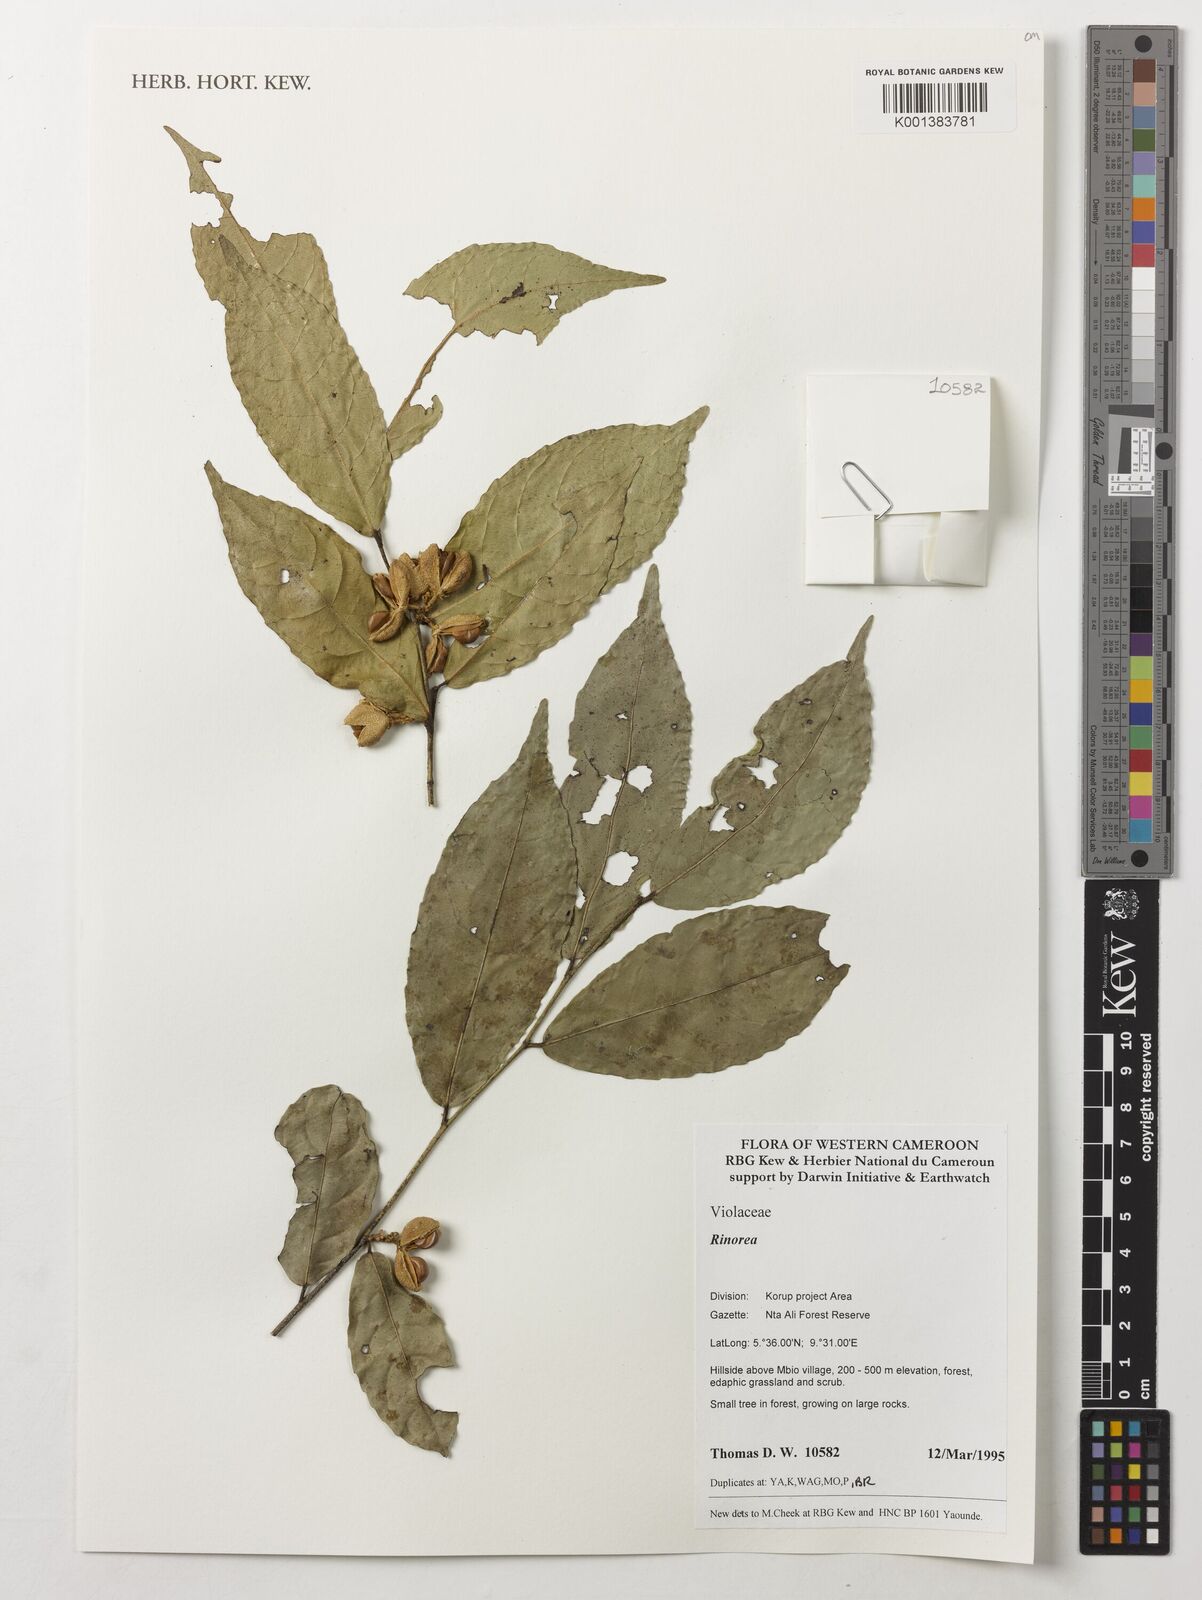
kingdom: Plantae
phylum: Tracheophyta
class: Magnoliopsida
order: Malpighiales
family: Violaceae
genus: Rinorea
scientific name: Rinorea
